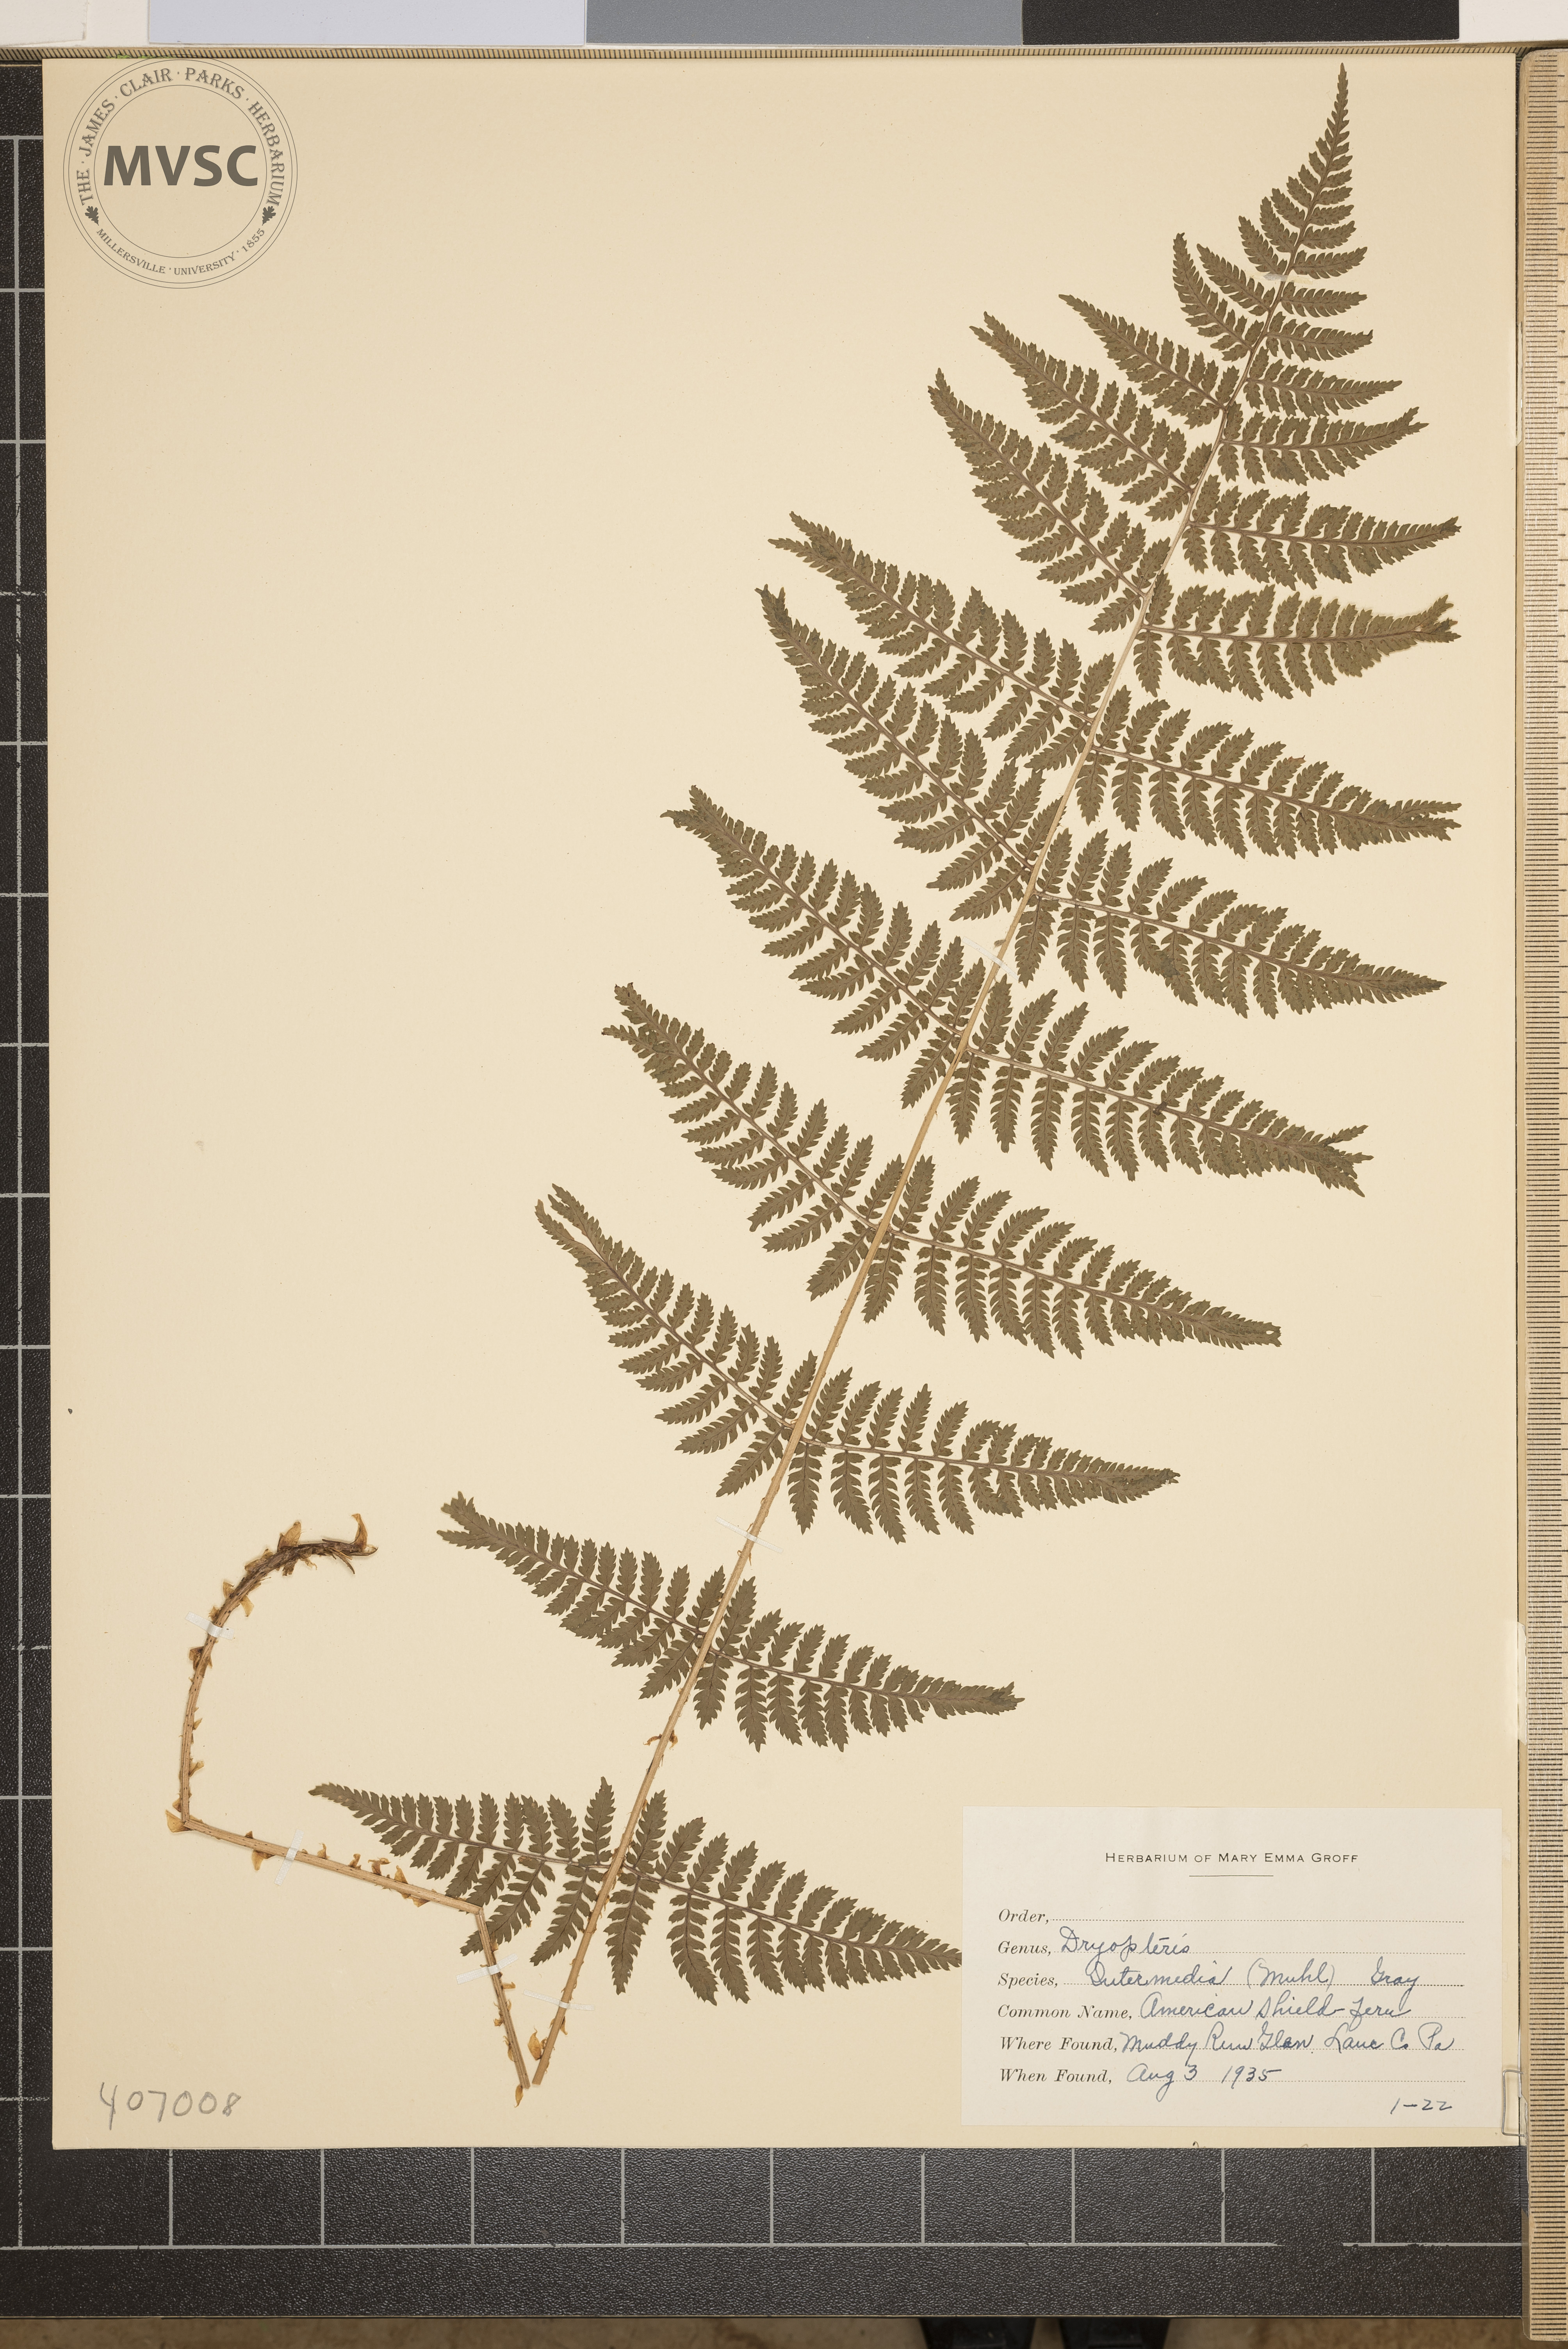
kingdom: Plantae
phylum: Tracheophyta
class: Polypodiopsida
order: Polypodiales
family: Dryopteridaceae
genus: Dryopteris
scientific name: Dryopteris intermedia
